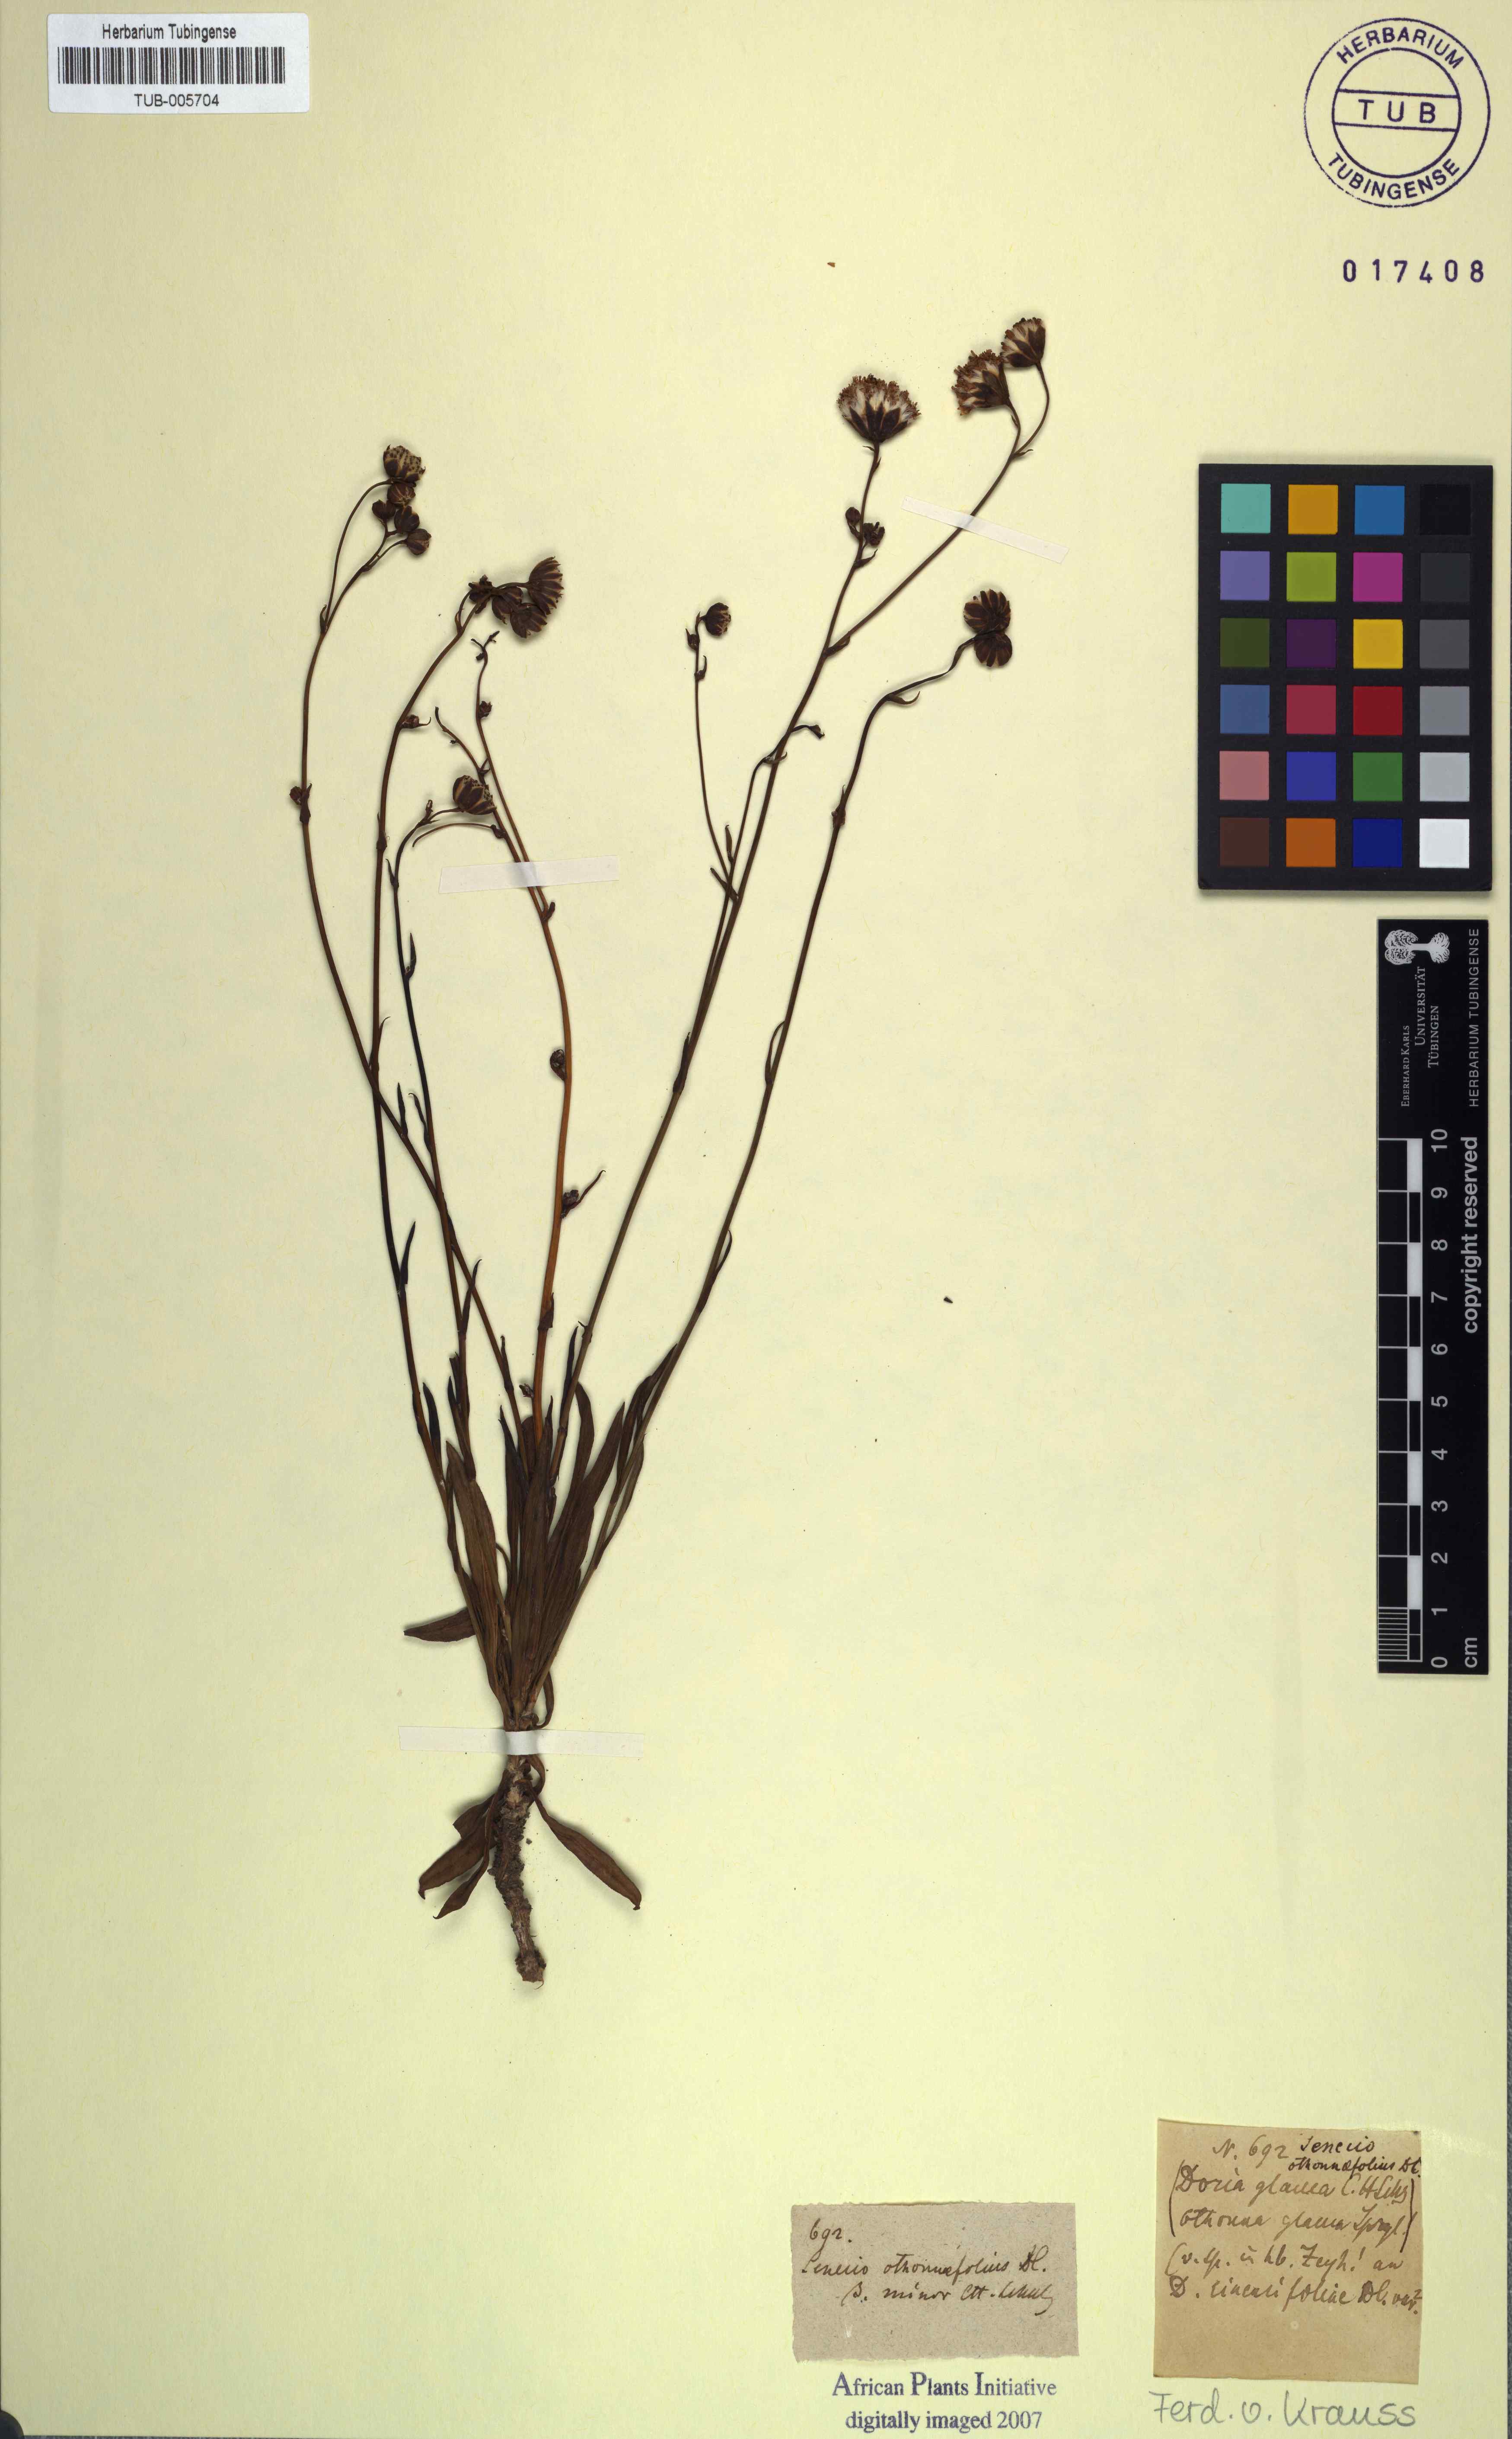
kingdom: Plantae
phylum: Tracheophyta
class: Magnoliopsida
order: Asterales
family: Asteraceae
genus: Senecio
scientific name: Senecio othonniflorus
